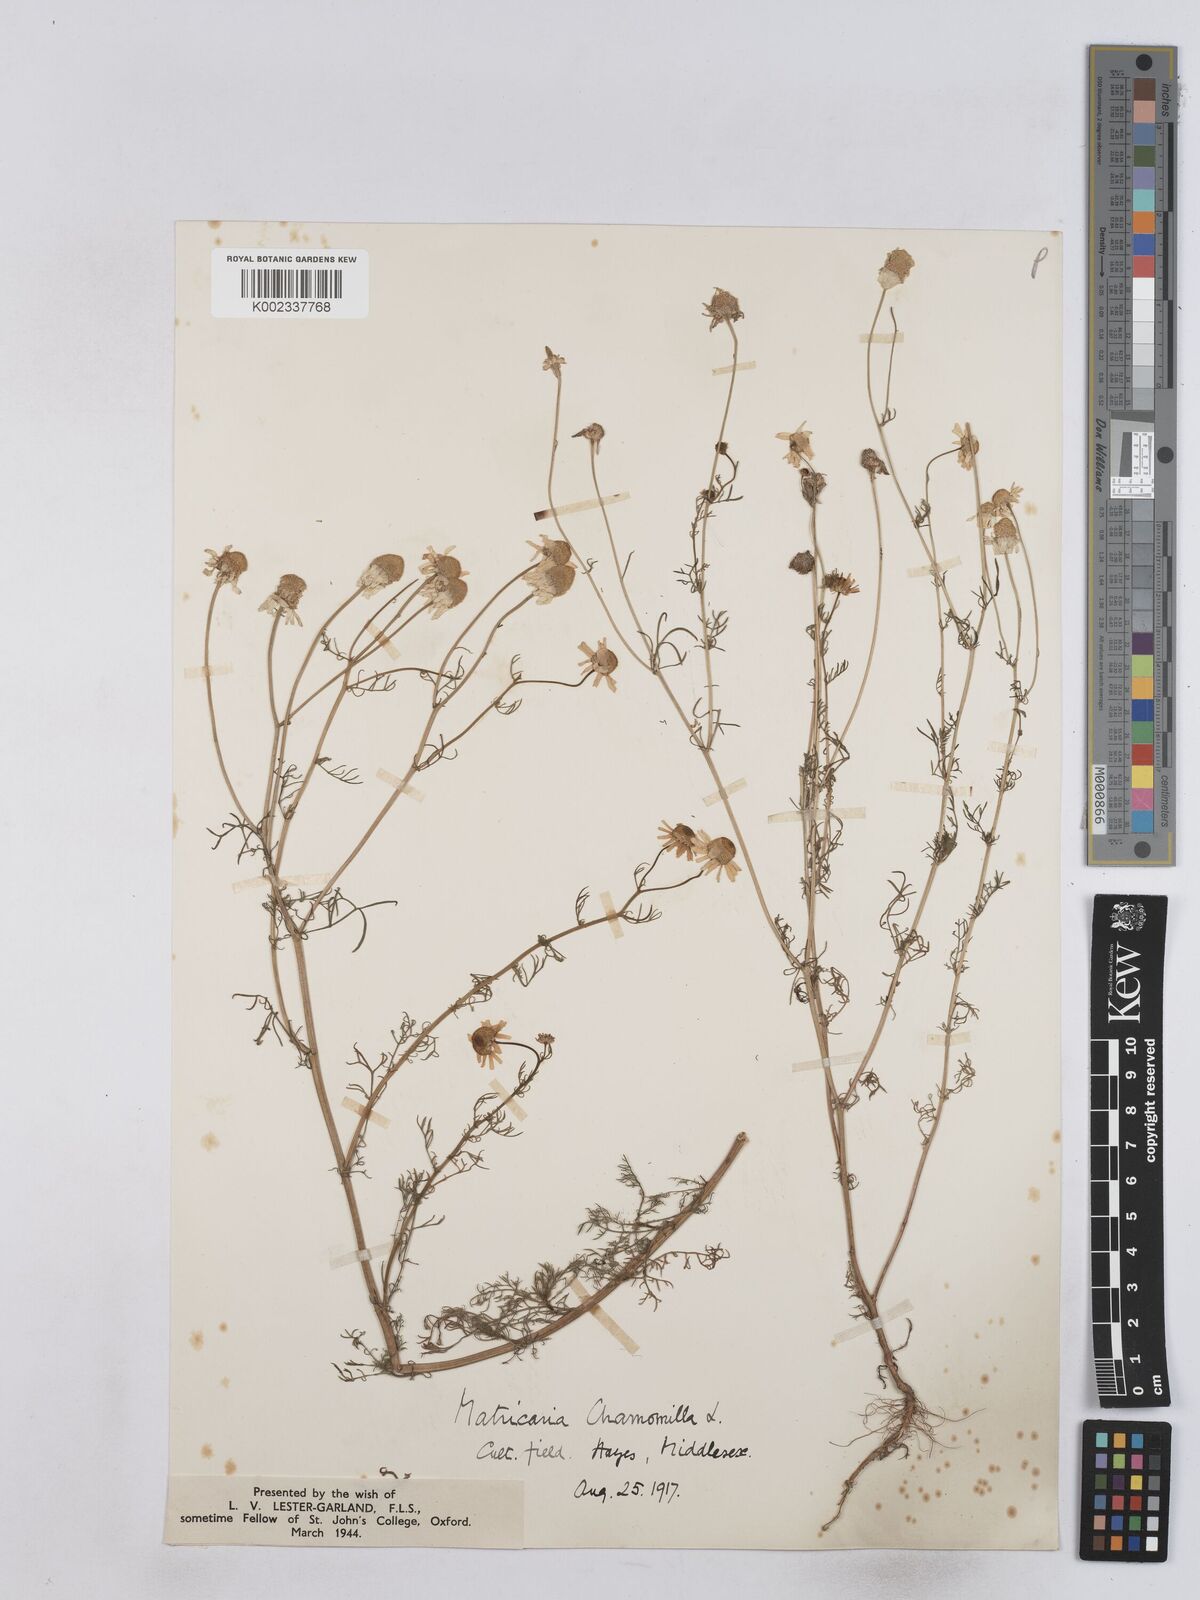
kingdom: Plantae
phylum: Tracheophyta
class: Magnoliopsida
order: Asterales
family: Asteraceae
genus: Matricaria
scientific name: Matricaria chamomilla
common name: Scented mayweed
